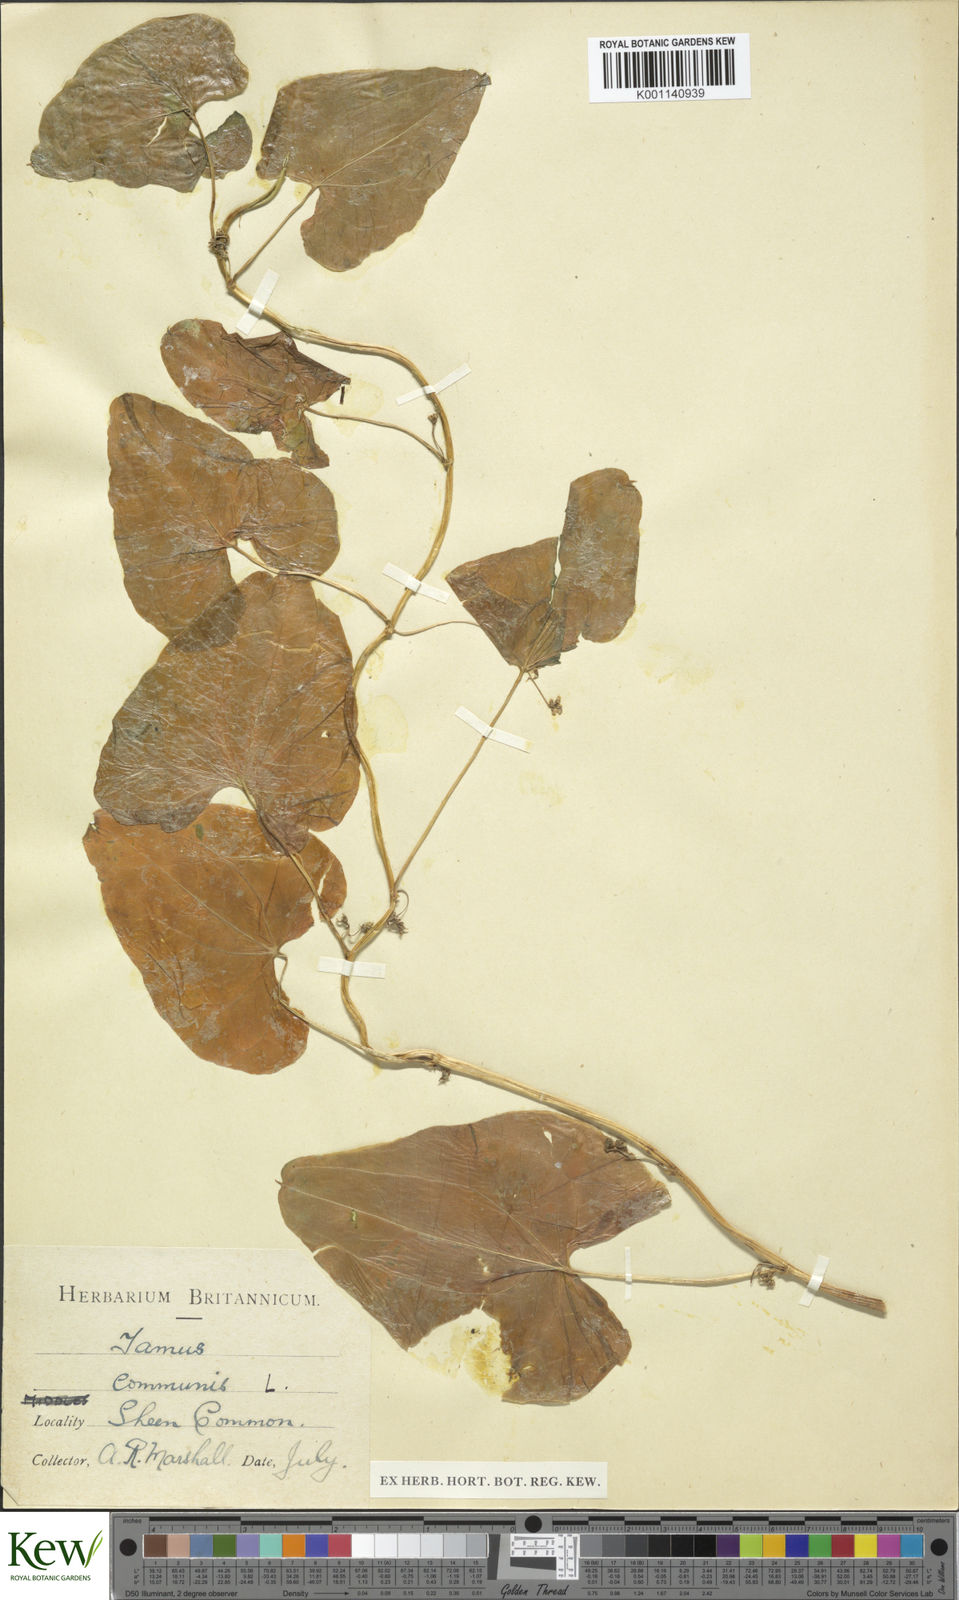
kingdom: Plantae
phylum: Tracheophyta
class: Liliopsida
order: Dioscoreales
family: Dioscoreaceae
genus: Dioscorea
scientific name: Dioscorea communis
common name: Black-bindweed
